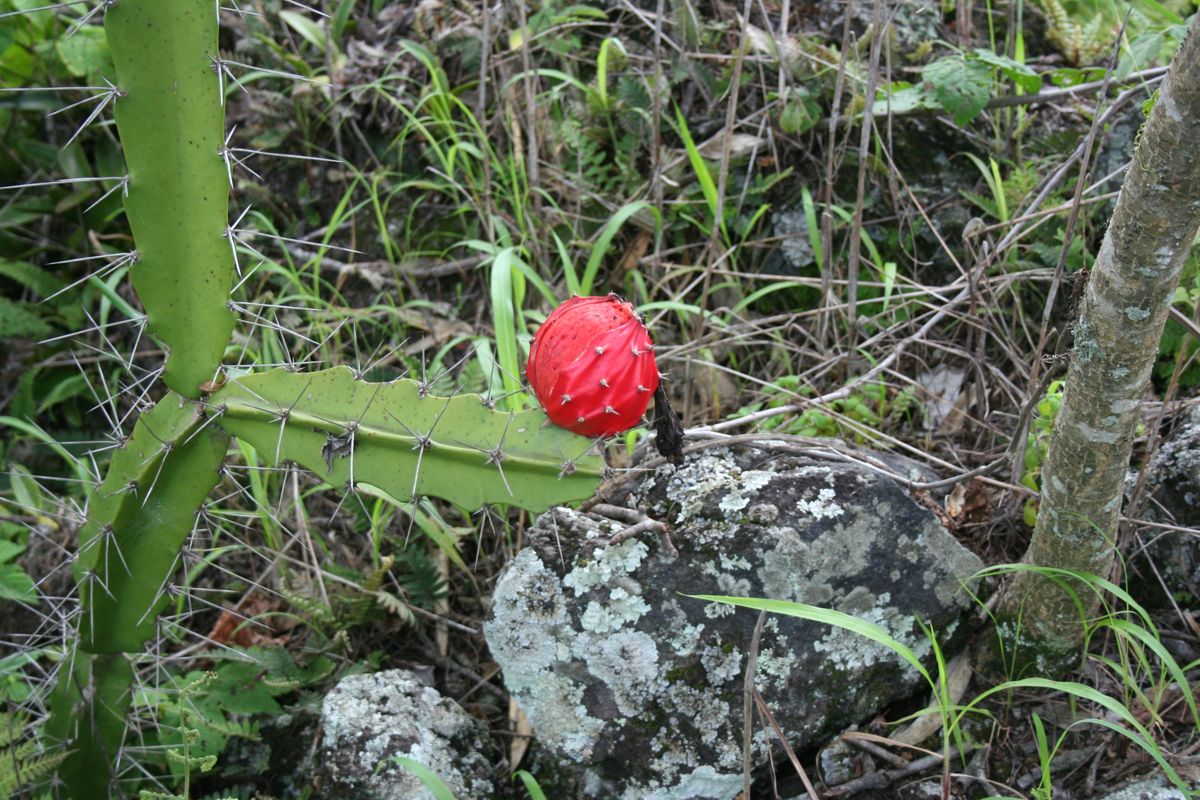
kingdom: Plantae
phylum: Tracheophyta
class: Magnoliopsida
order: Caryophyllales
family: Cactaceae
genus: Acanthocereus
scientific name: Acanthocereus tetragonus
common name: Triangle cactus
